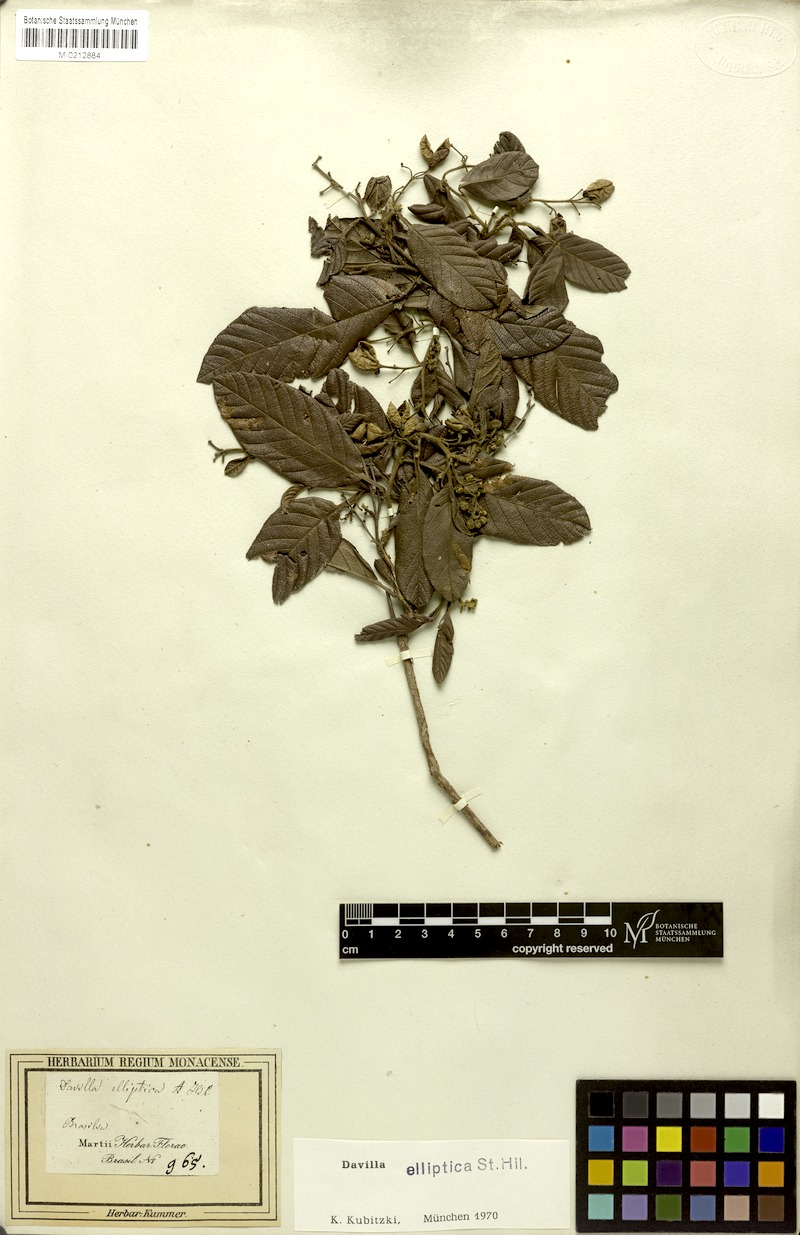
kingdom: Plantae
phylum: Tracheophyta
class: Magnoliopsida
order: Dilleniales
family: Dilleniaceae
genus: Davilla
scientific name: Davilla elliptica
